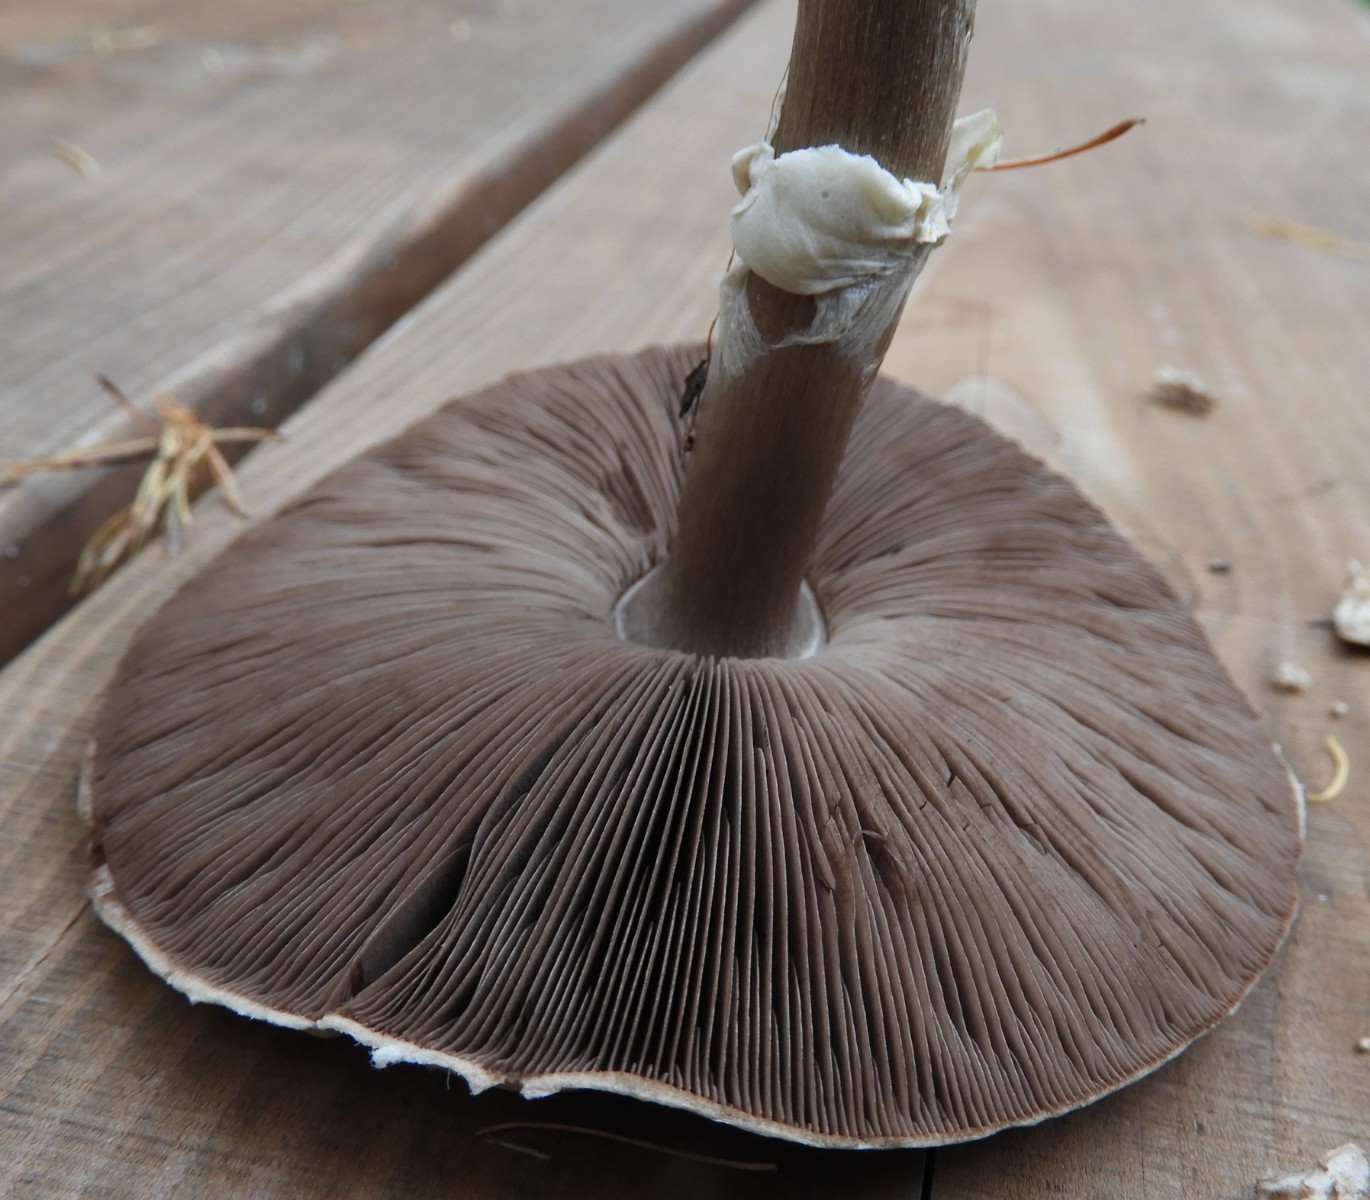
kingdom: Fungi
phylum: Basidiomycota
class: Agaricomycetes
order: Agaricales
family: Agaricaceae
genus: Agaricus
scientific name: Agaricus impudicus
